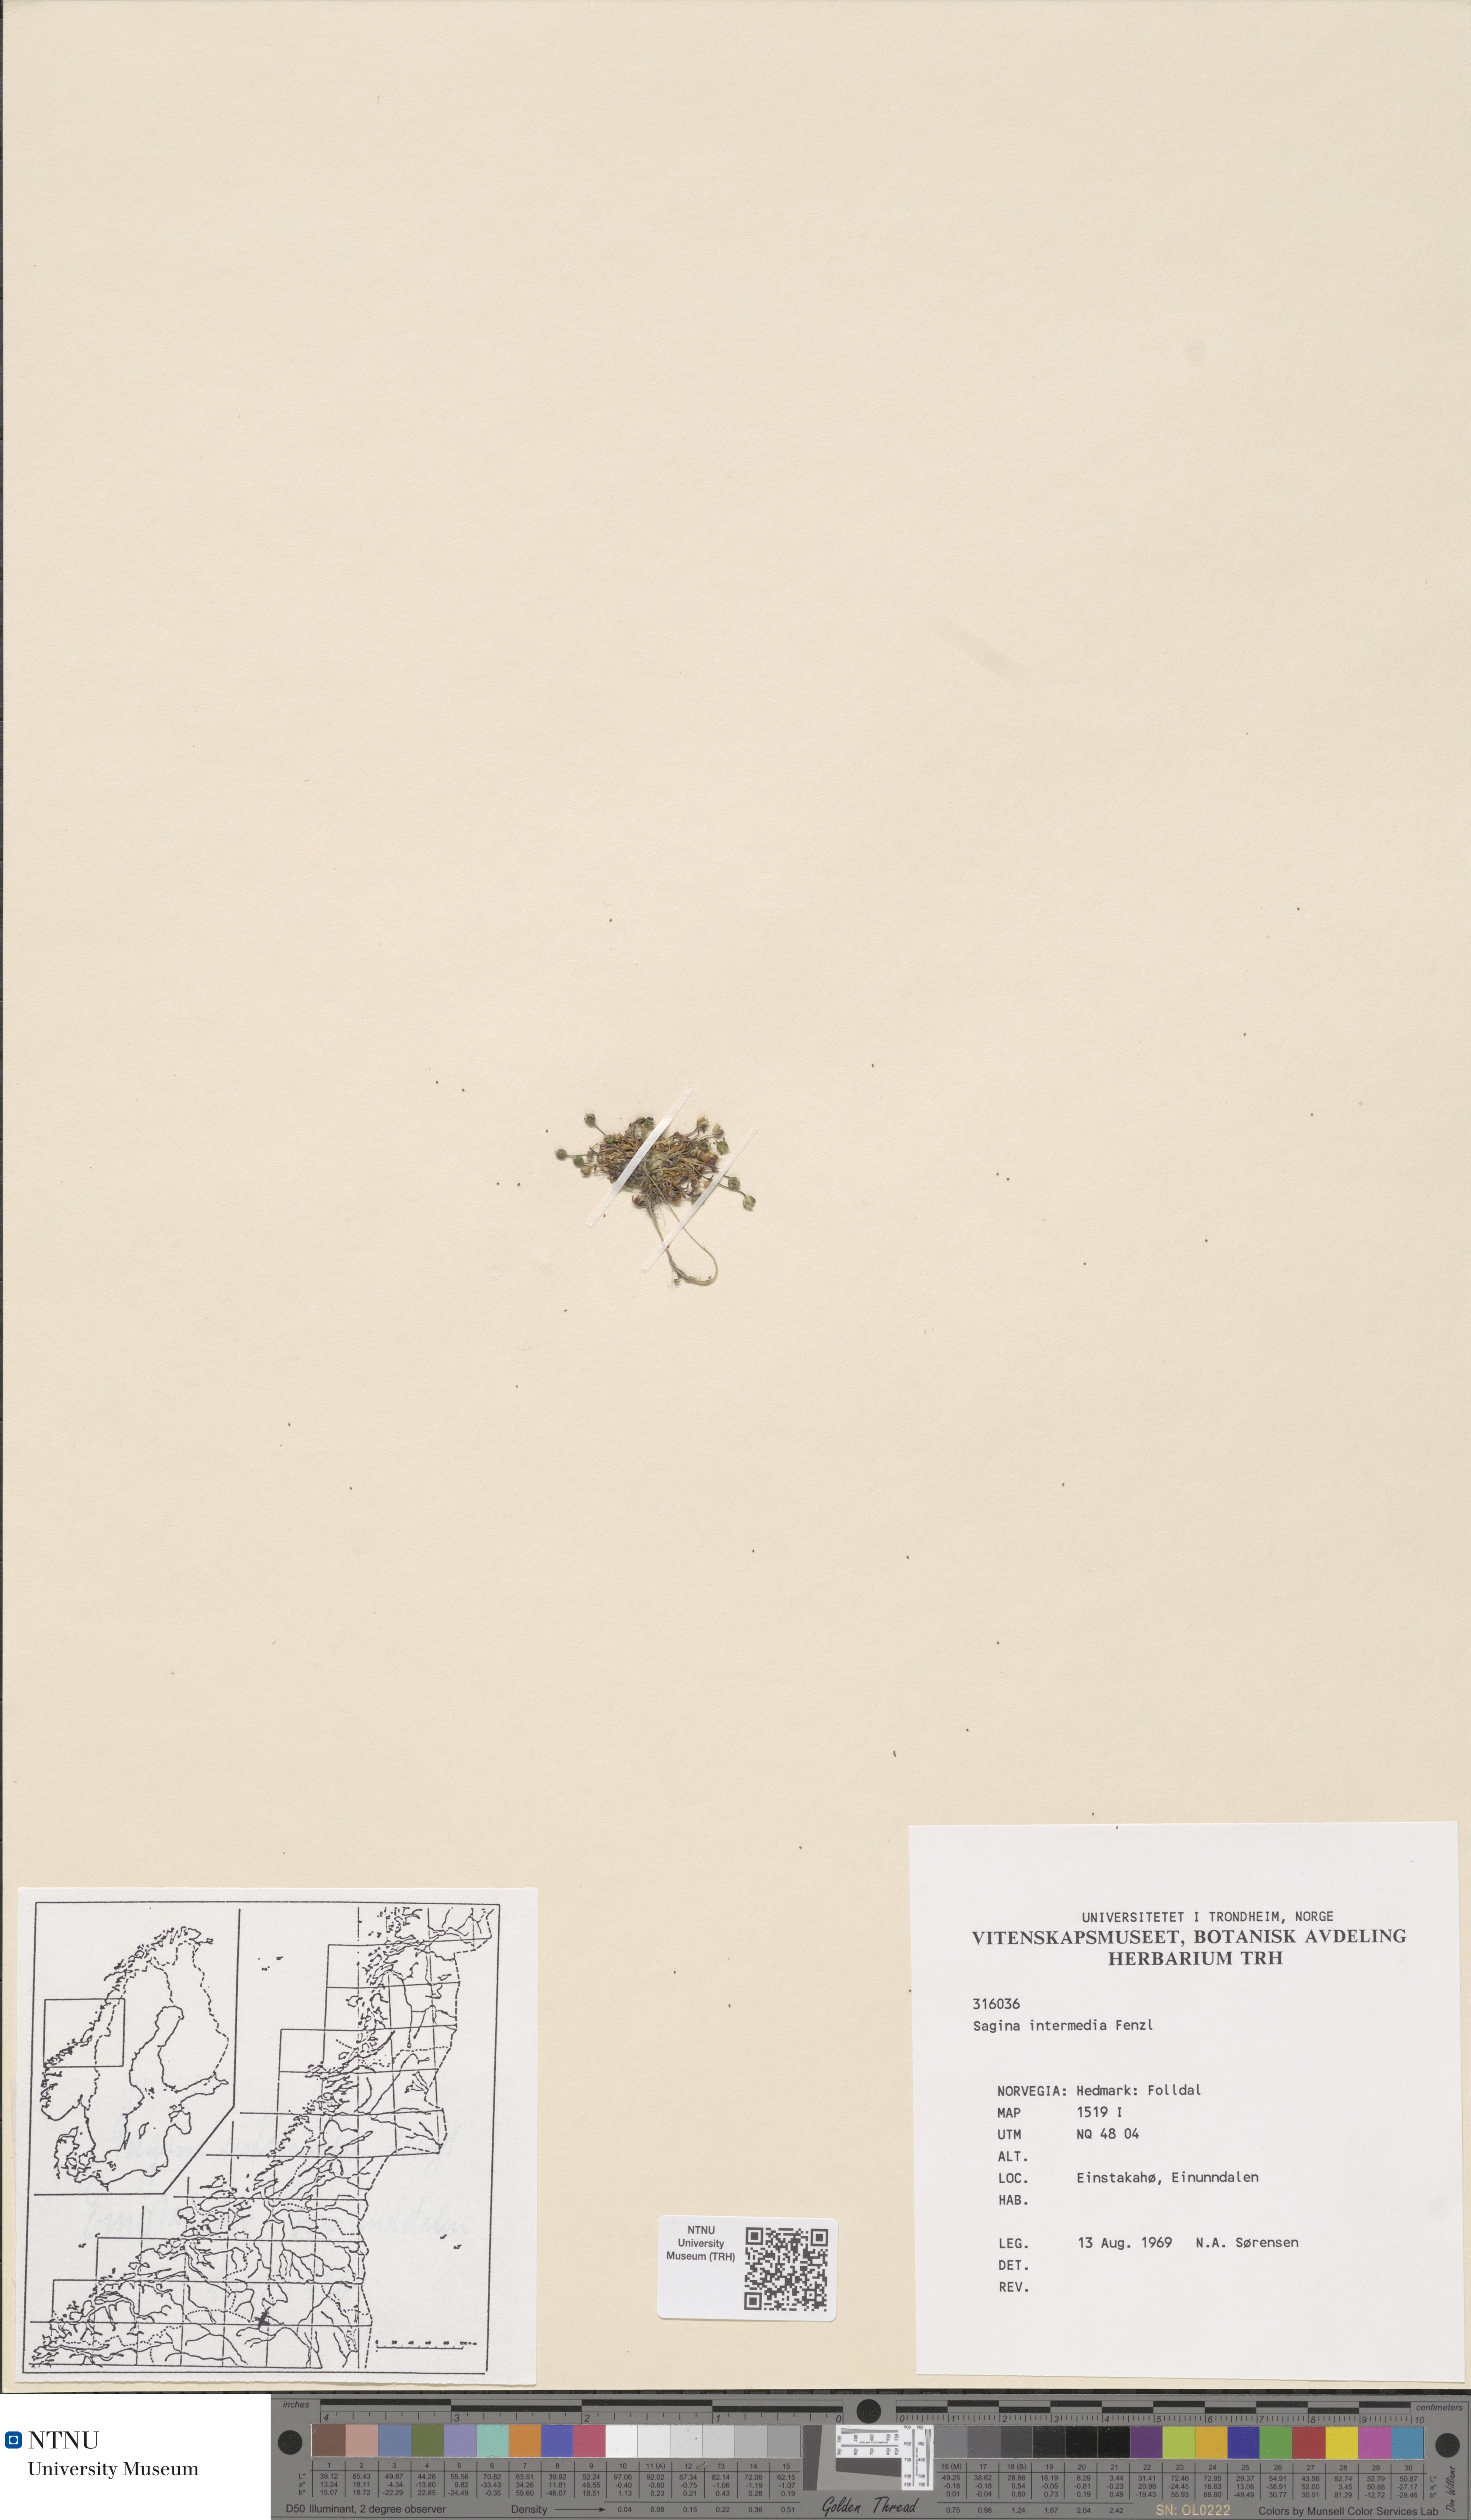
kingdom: Plantae
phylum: Tracheophyta
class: Magnoliopsida
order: Caryophyllales
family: Caryophyllaceae
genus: Sagina
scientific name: Sagina nivalis
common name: Snow pearlwort
